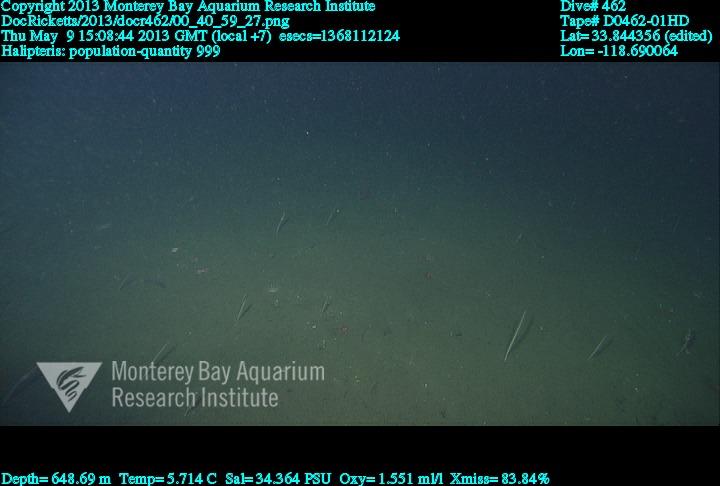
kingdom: Animalia
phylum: Cnidaria
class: Anthozoa
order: Scleralcyonacea
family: Balticinidae
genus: Balticina
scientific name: Balticina
